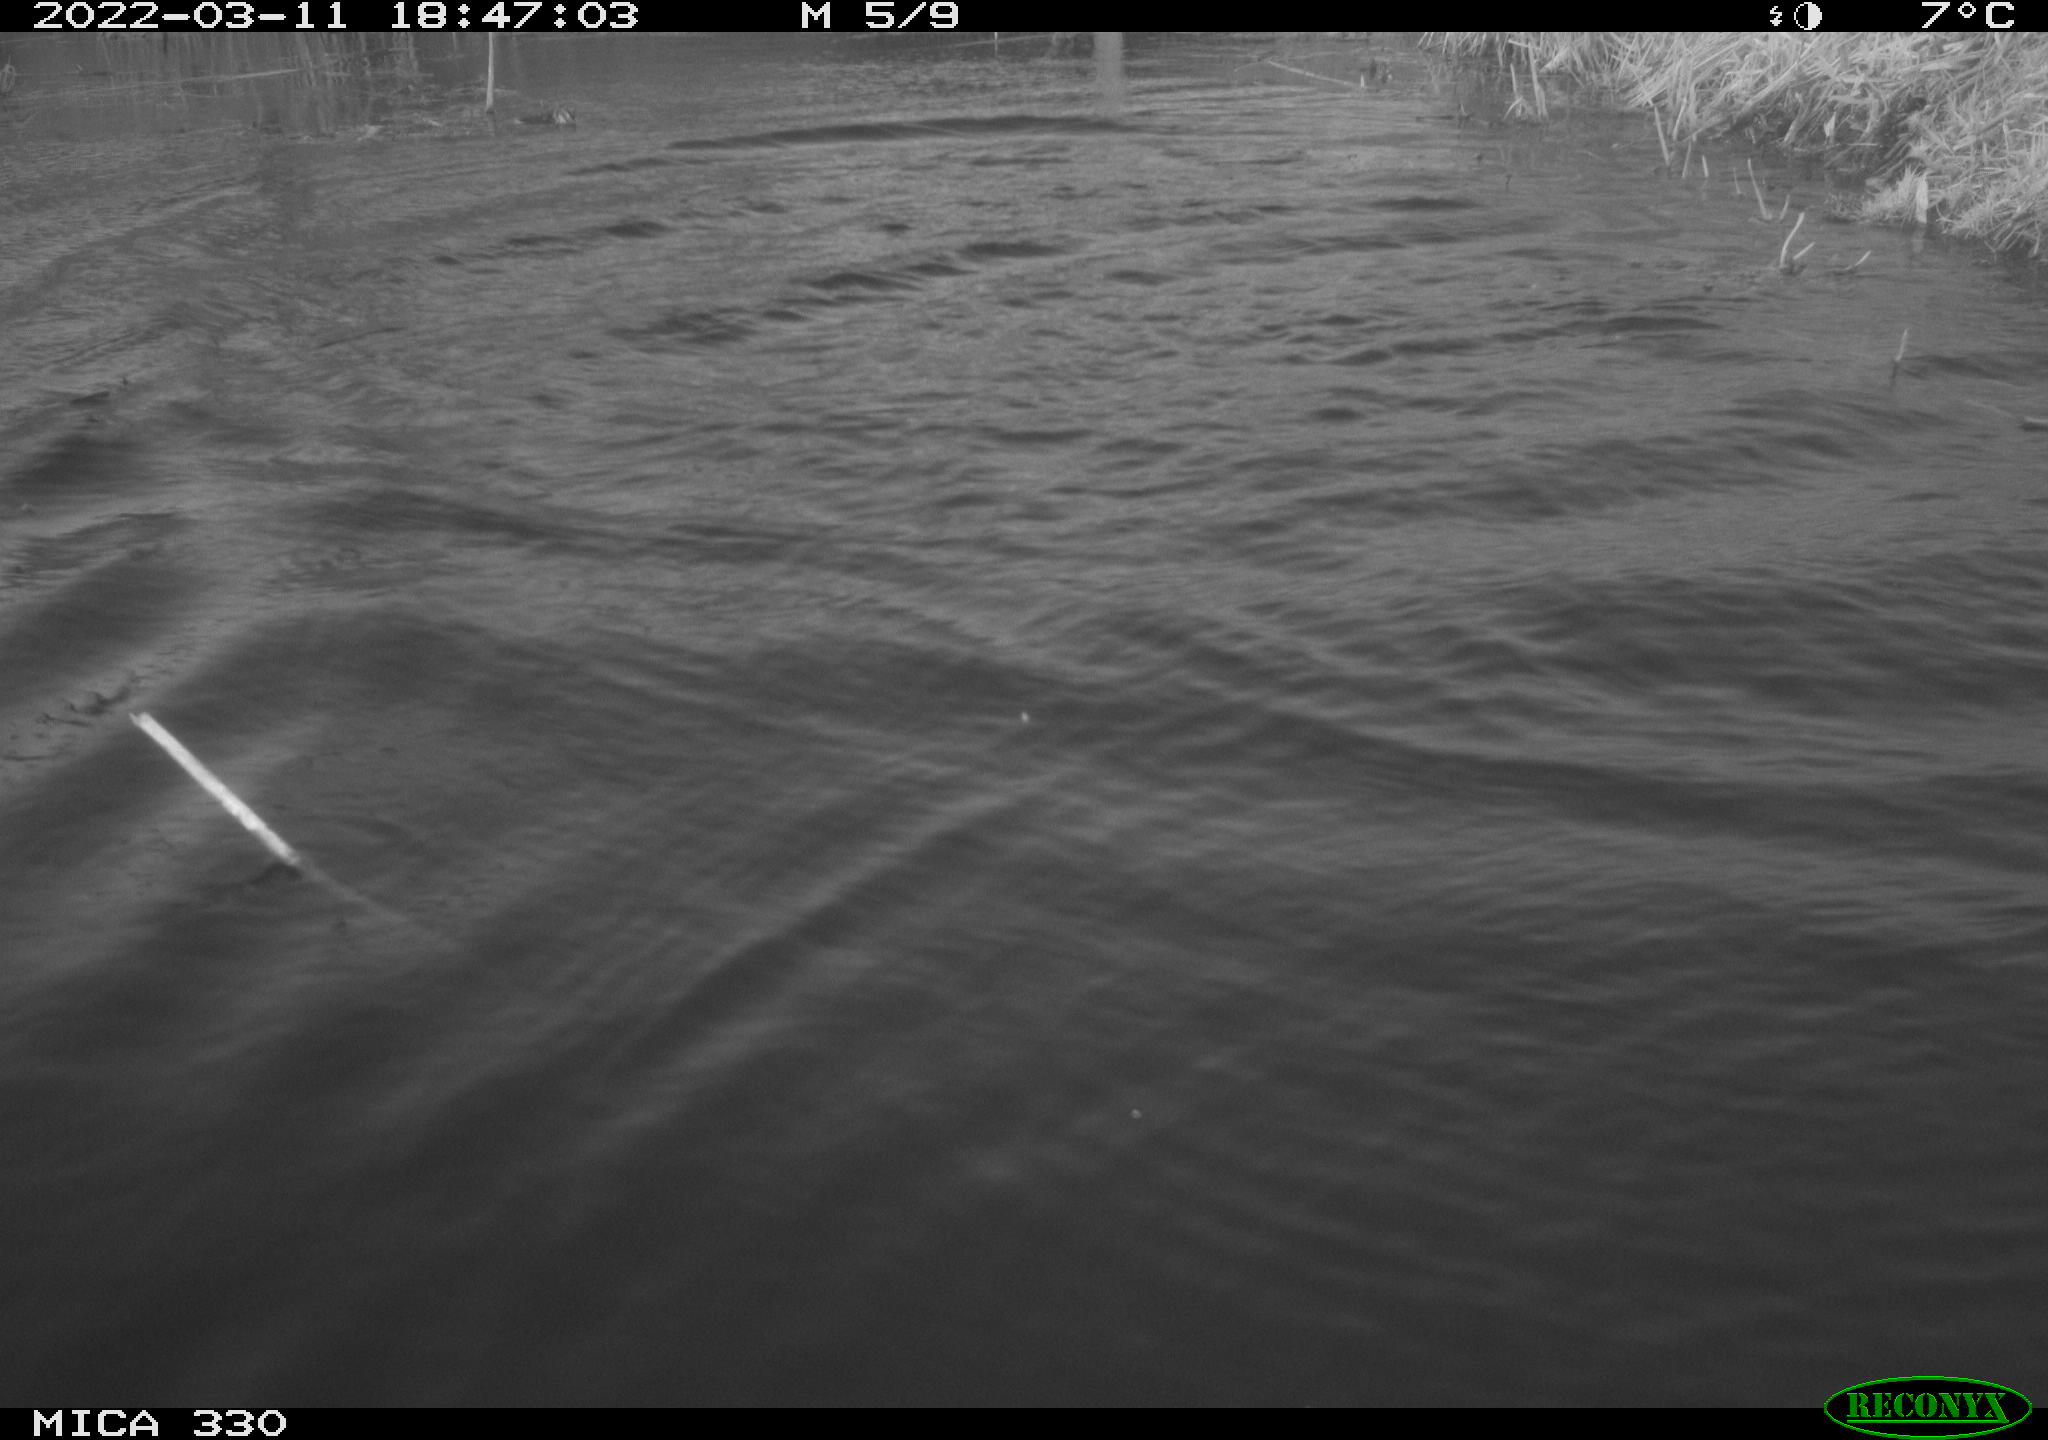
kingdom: Animalia
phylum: Chordata
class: Aves
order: Anseriformes
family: Anatidae
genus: Anas
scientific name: Anas platyrhynchos
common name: Mallard
